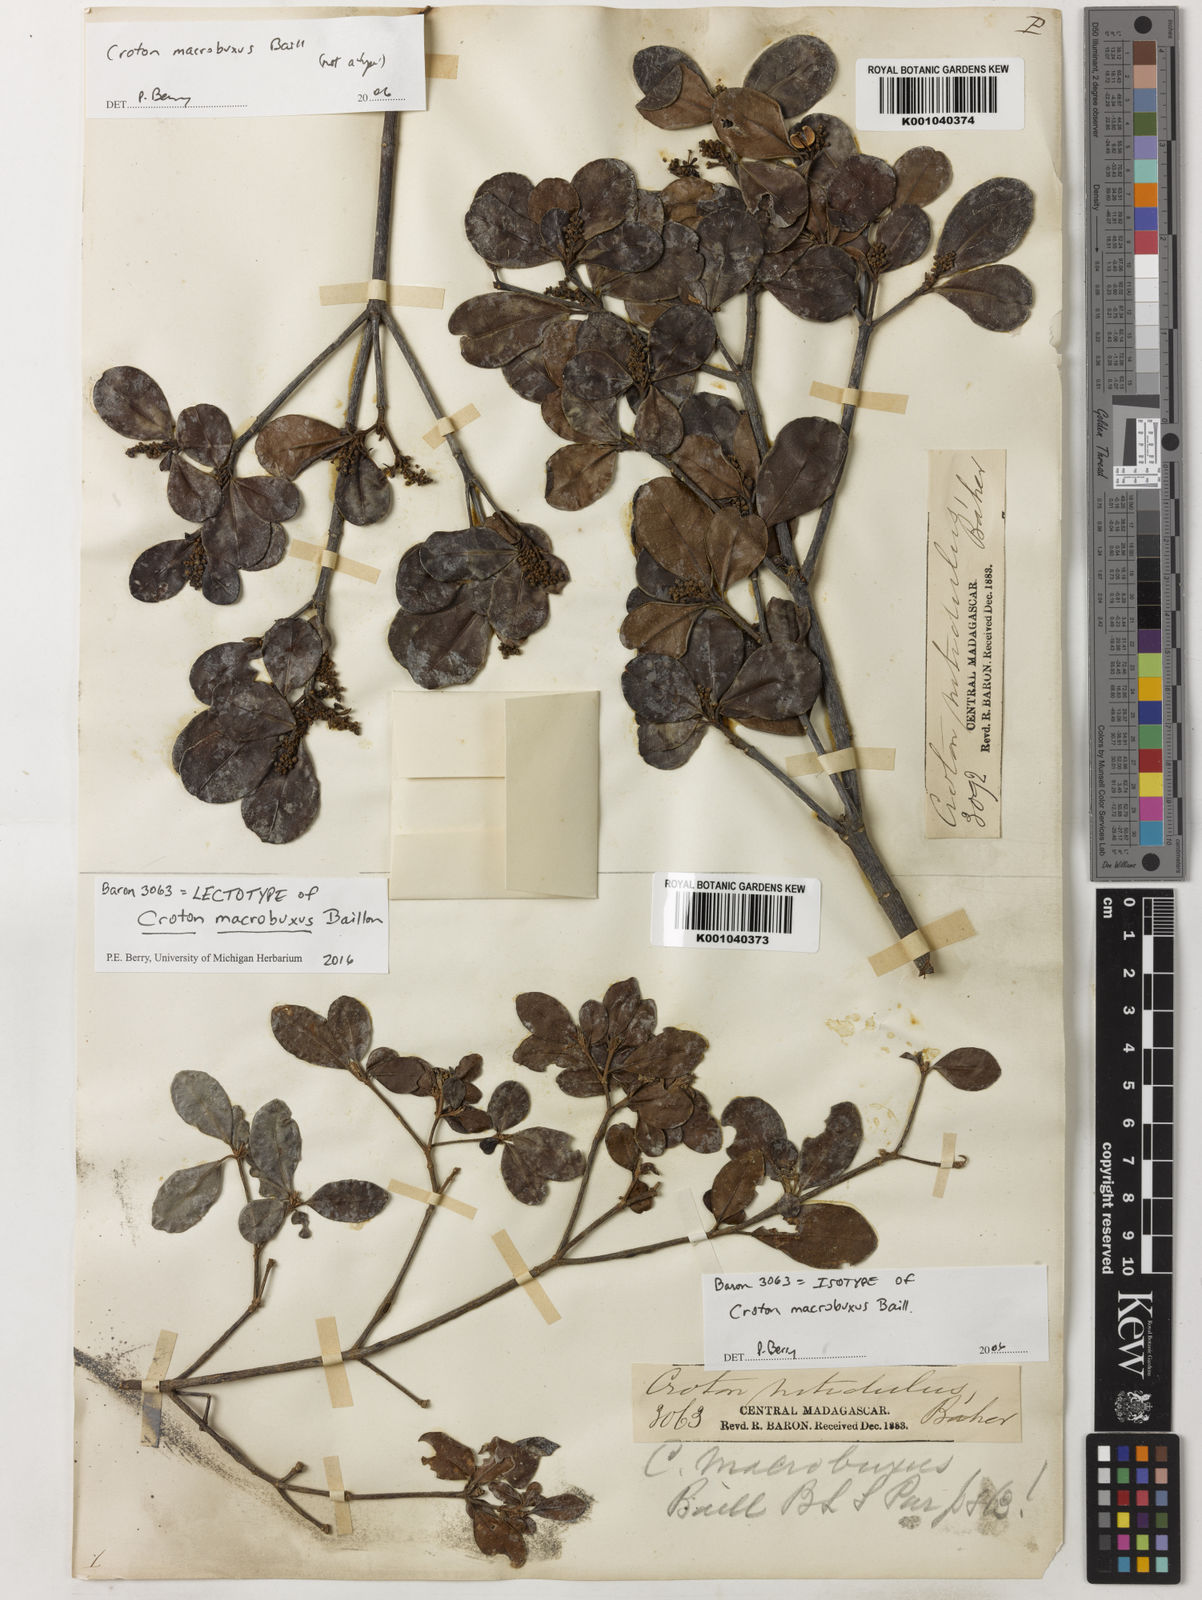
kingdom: Plantae
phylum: Tracheophyta
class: Magnoliopsida
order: Malpighiales
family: Euphorbiaceae
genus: Croton
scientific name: Croton macrobuxus
